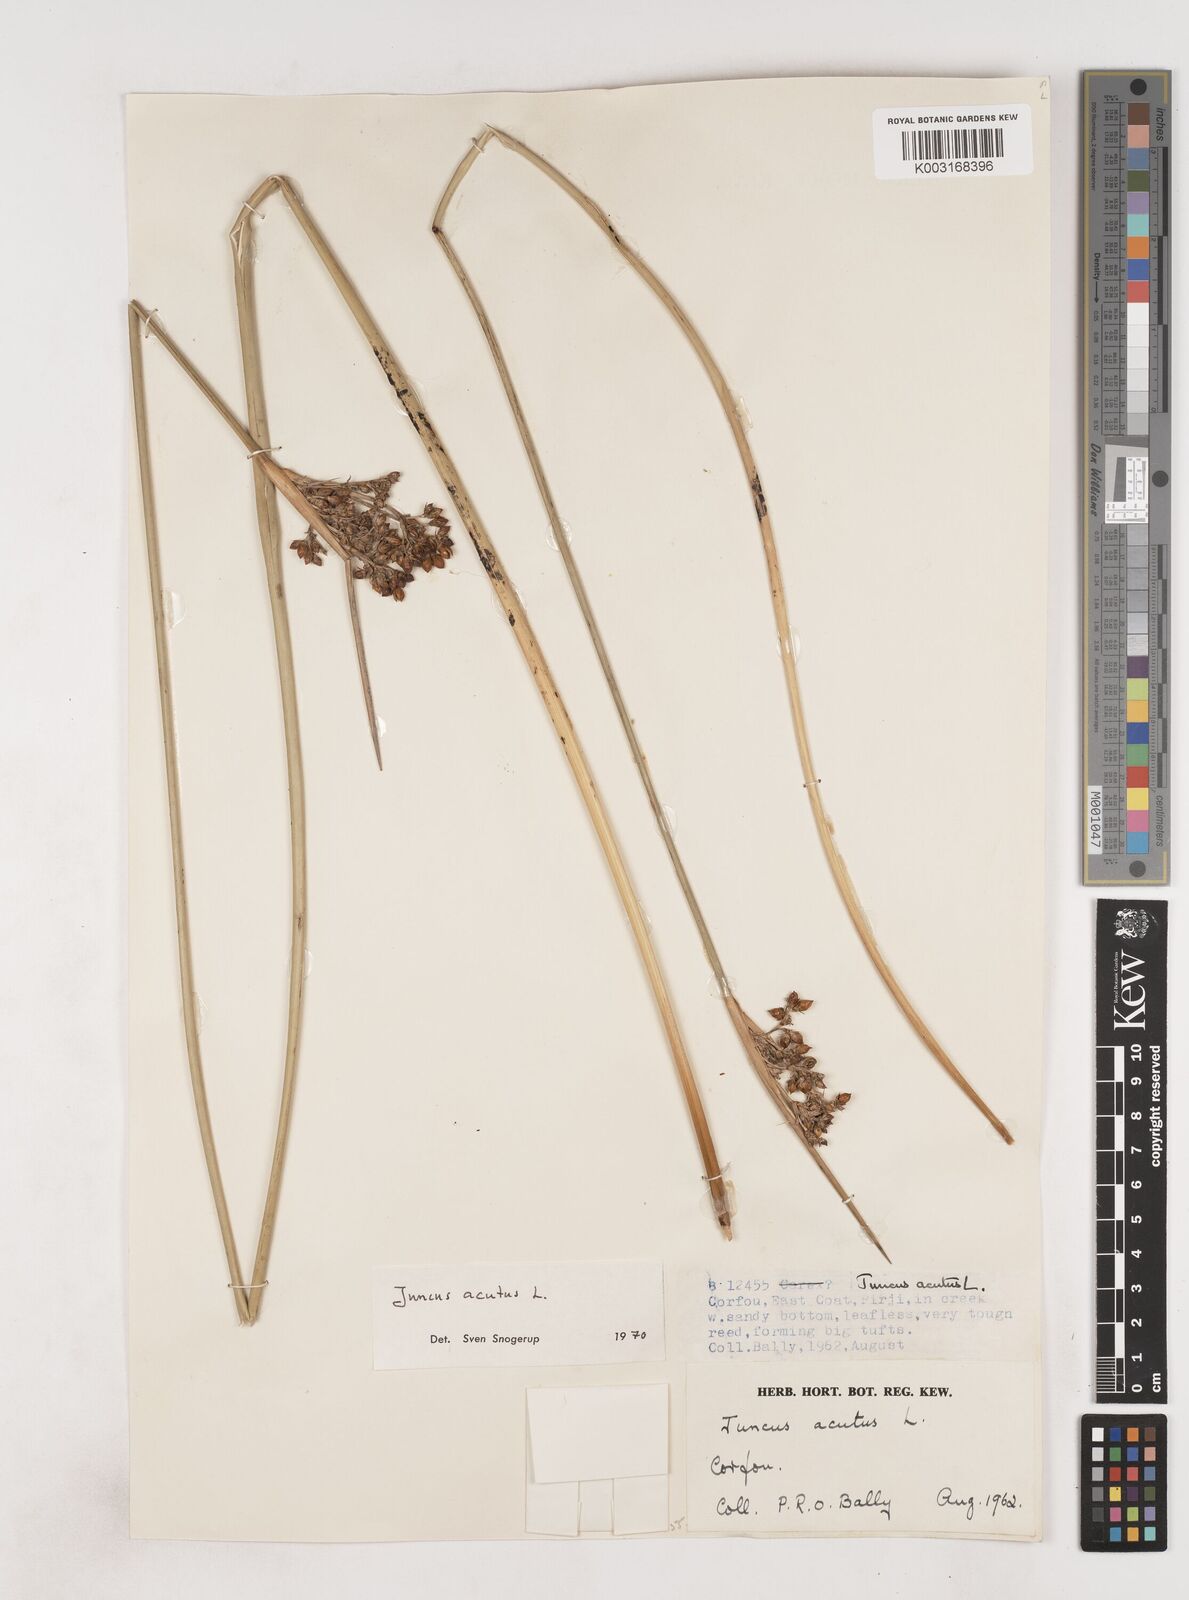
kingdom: Plantae
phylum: Tracheophyta
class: Liliopsida
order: Poales
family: Juncaceae
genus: Juncus
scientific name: Juncus acutus
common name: Sharp rush
